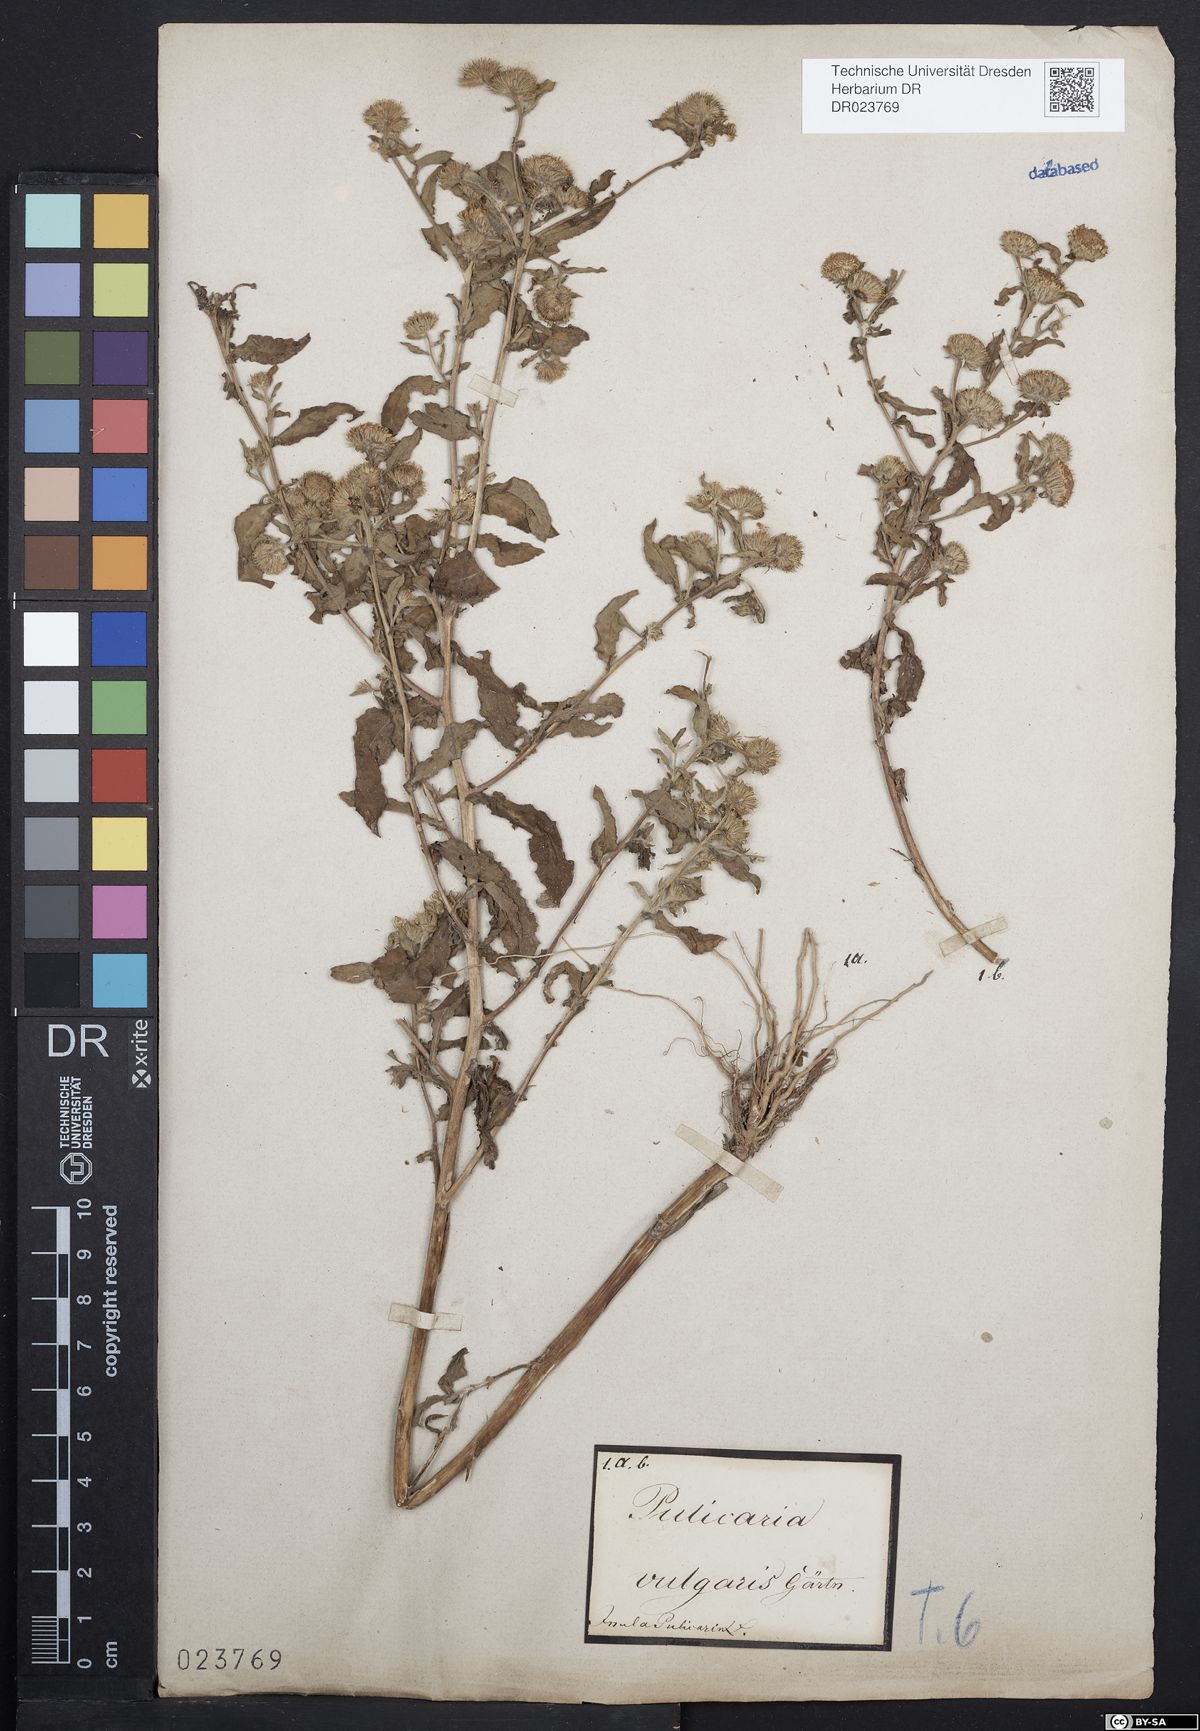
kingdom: Plantae
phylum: Tracheophyta
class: Magnoliopsida
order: Asterales
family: Asteraceae
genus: Pulicaria
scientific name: Pulicaria vulgaris
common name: Small fleabane
